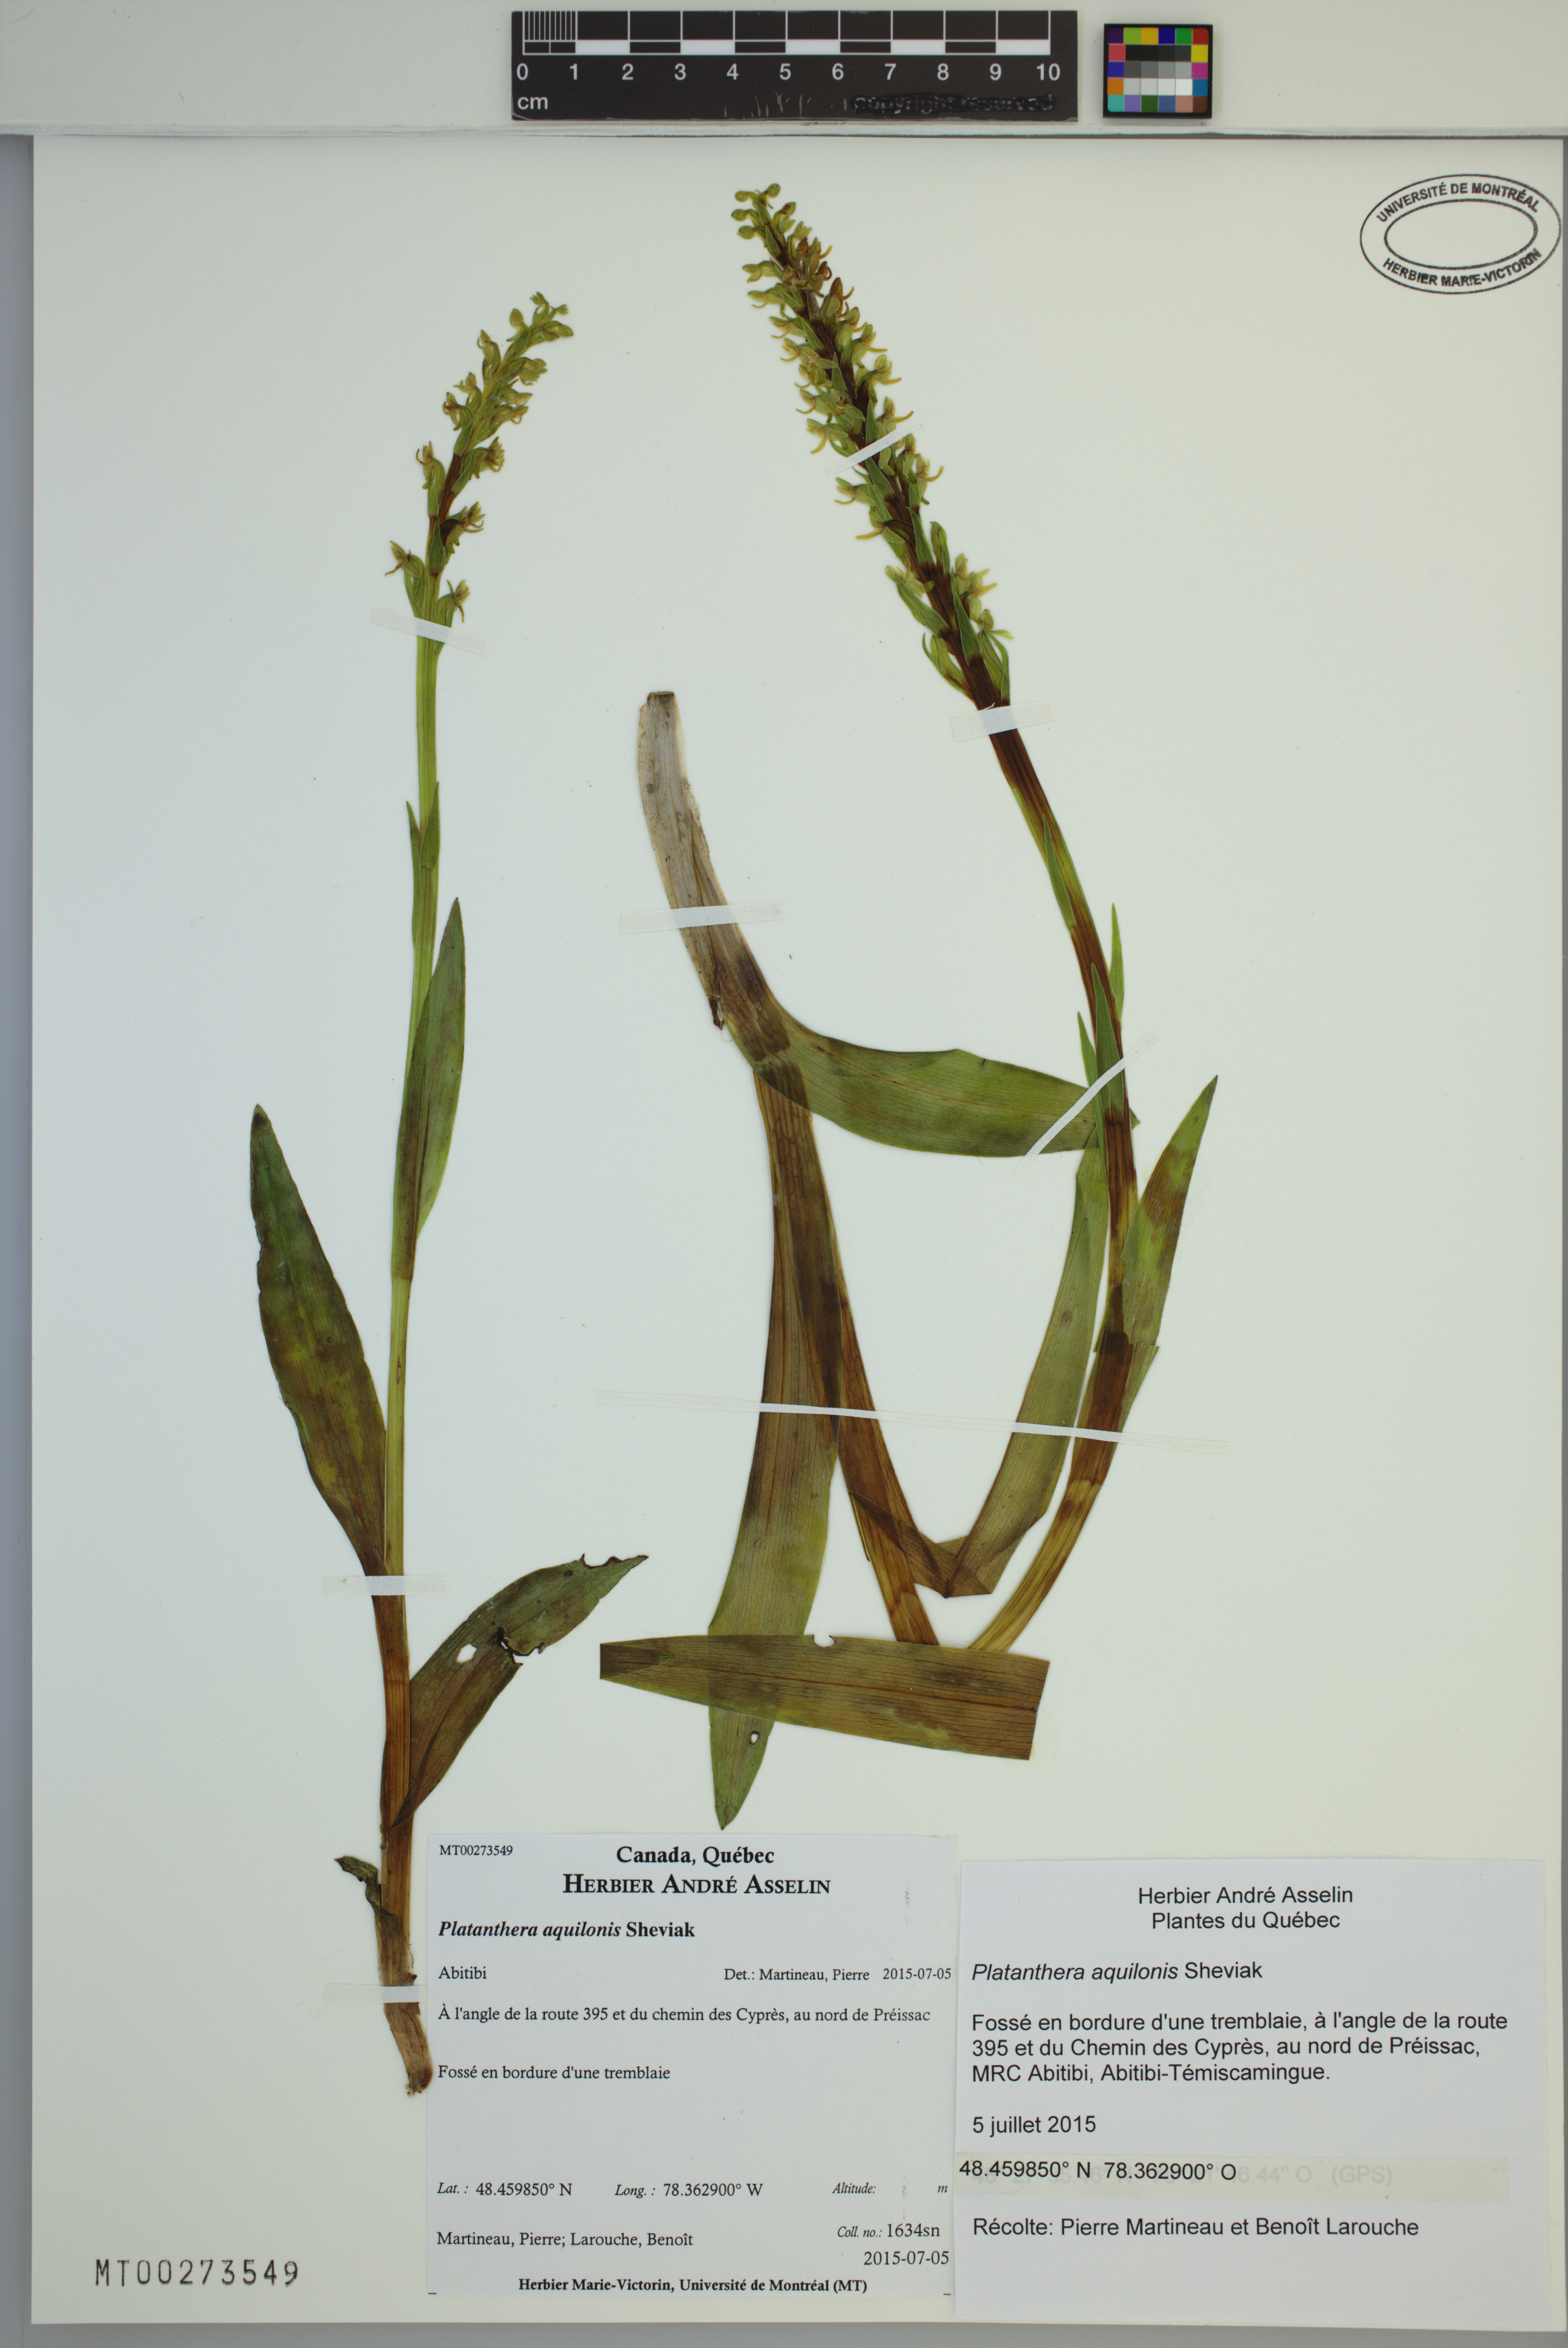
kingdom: Plantae
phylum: Tracheophyta
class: Liliopsida
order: Asparagales
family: Orchidaceae
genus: Platanthera
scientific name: Platanthera aquilonis
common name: Northern green orchid
